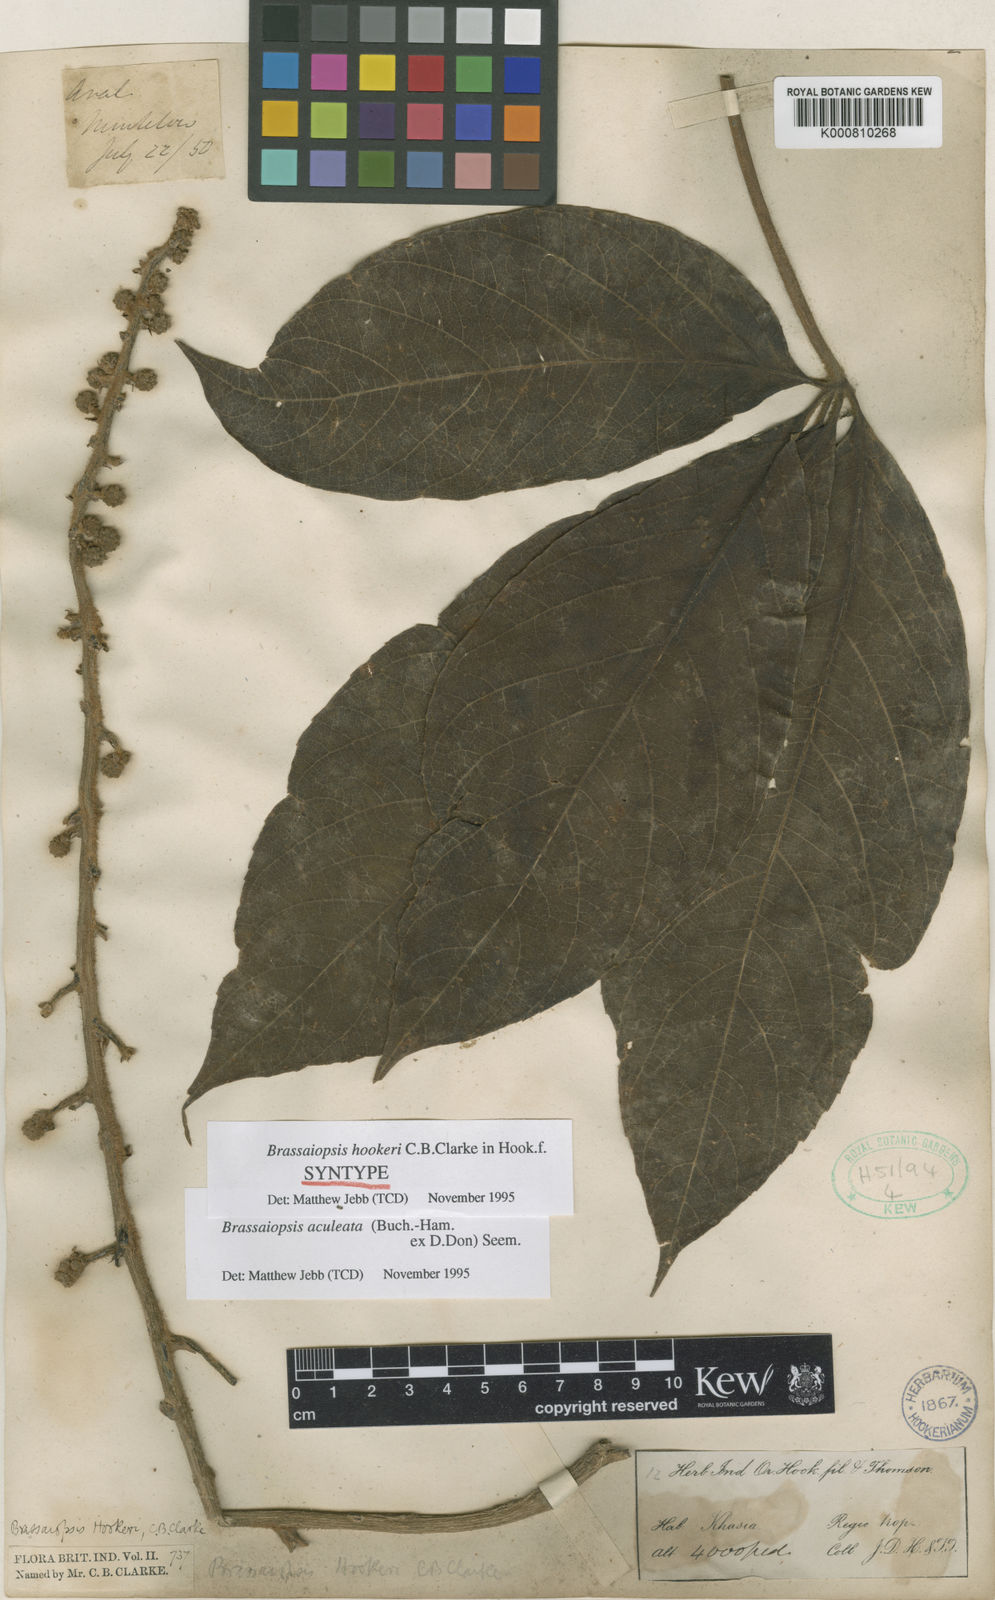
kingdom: Plantae
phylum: Tracheophyta
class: Magnoliopsida
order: Apiales
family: Araliaceae
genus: Brassaiopsis
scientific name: Brassaiopsis aculeata
